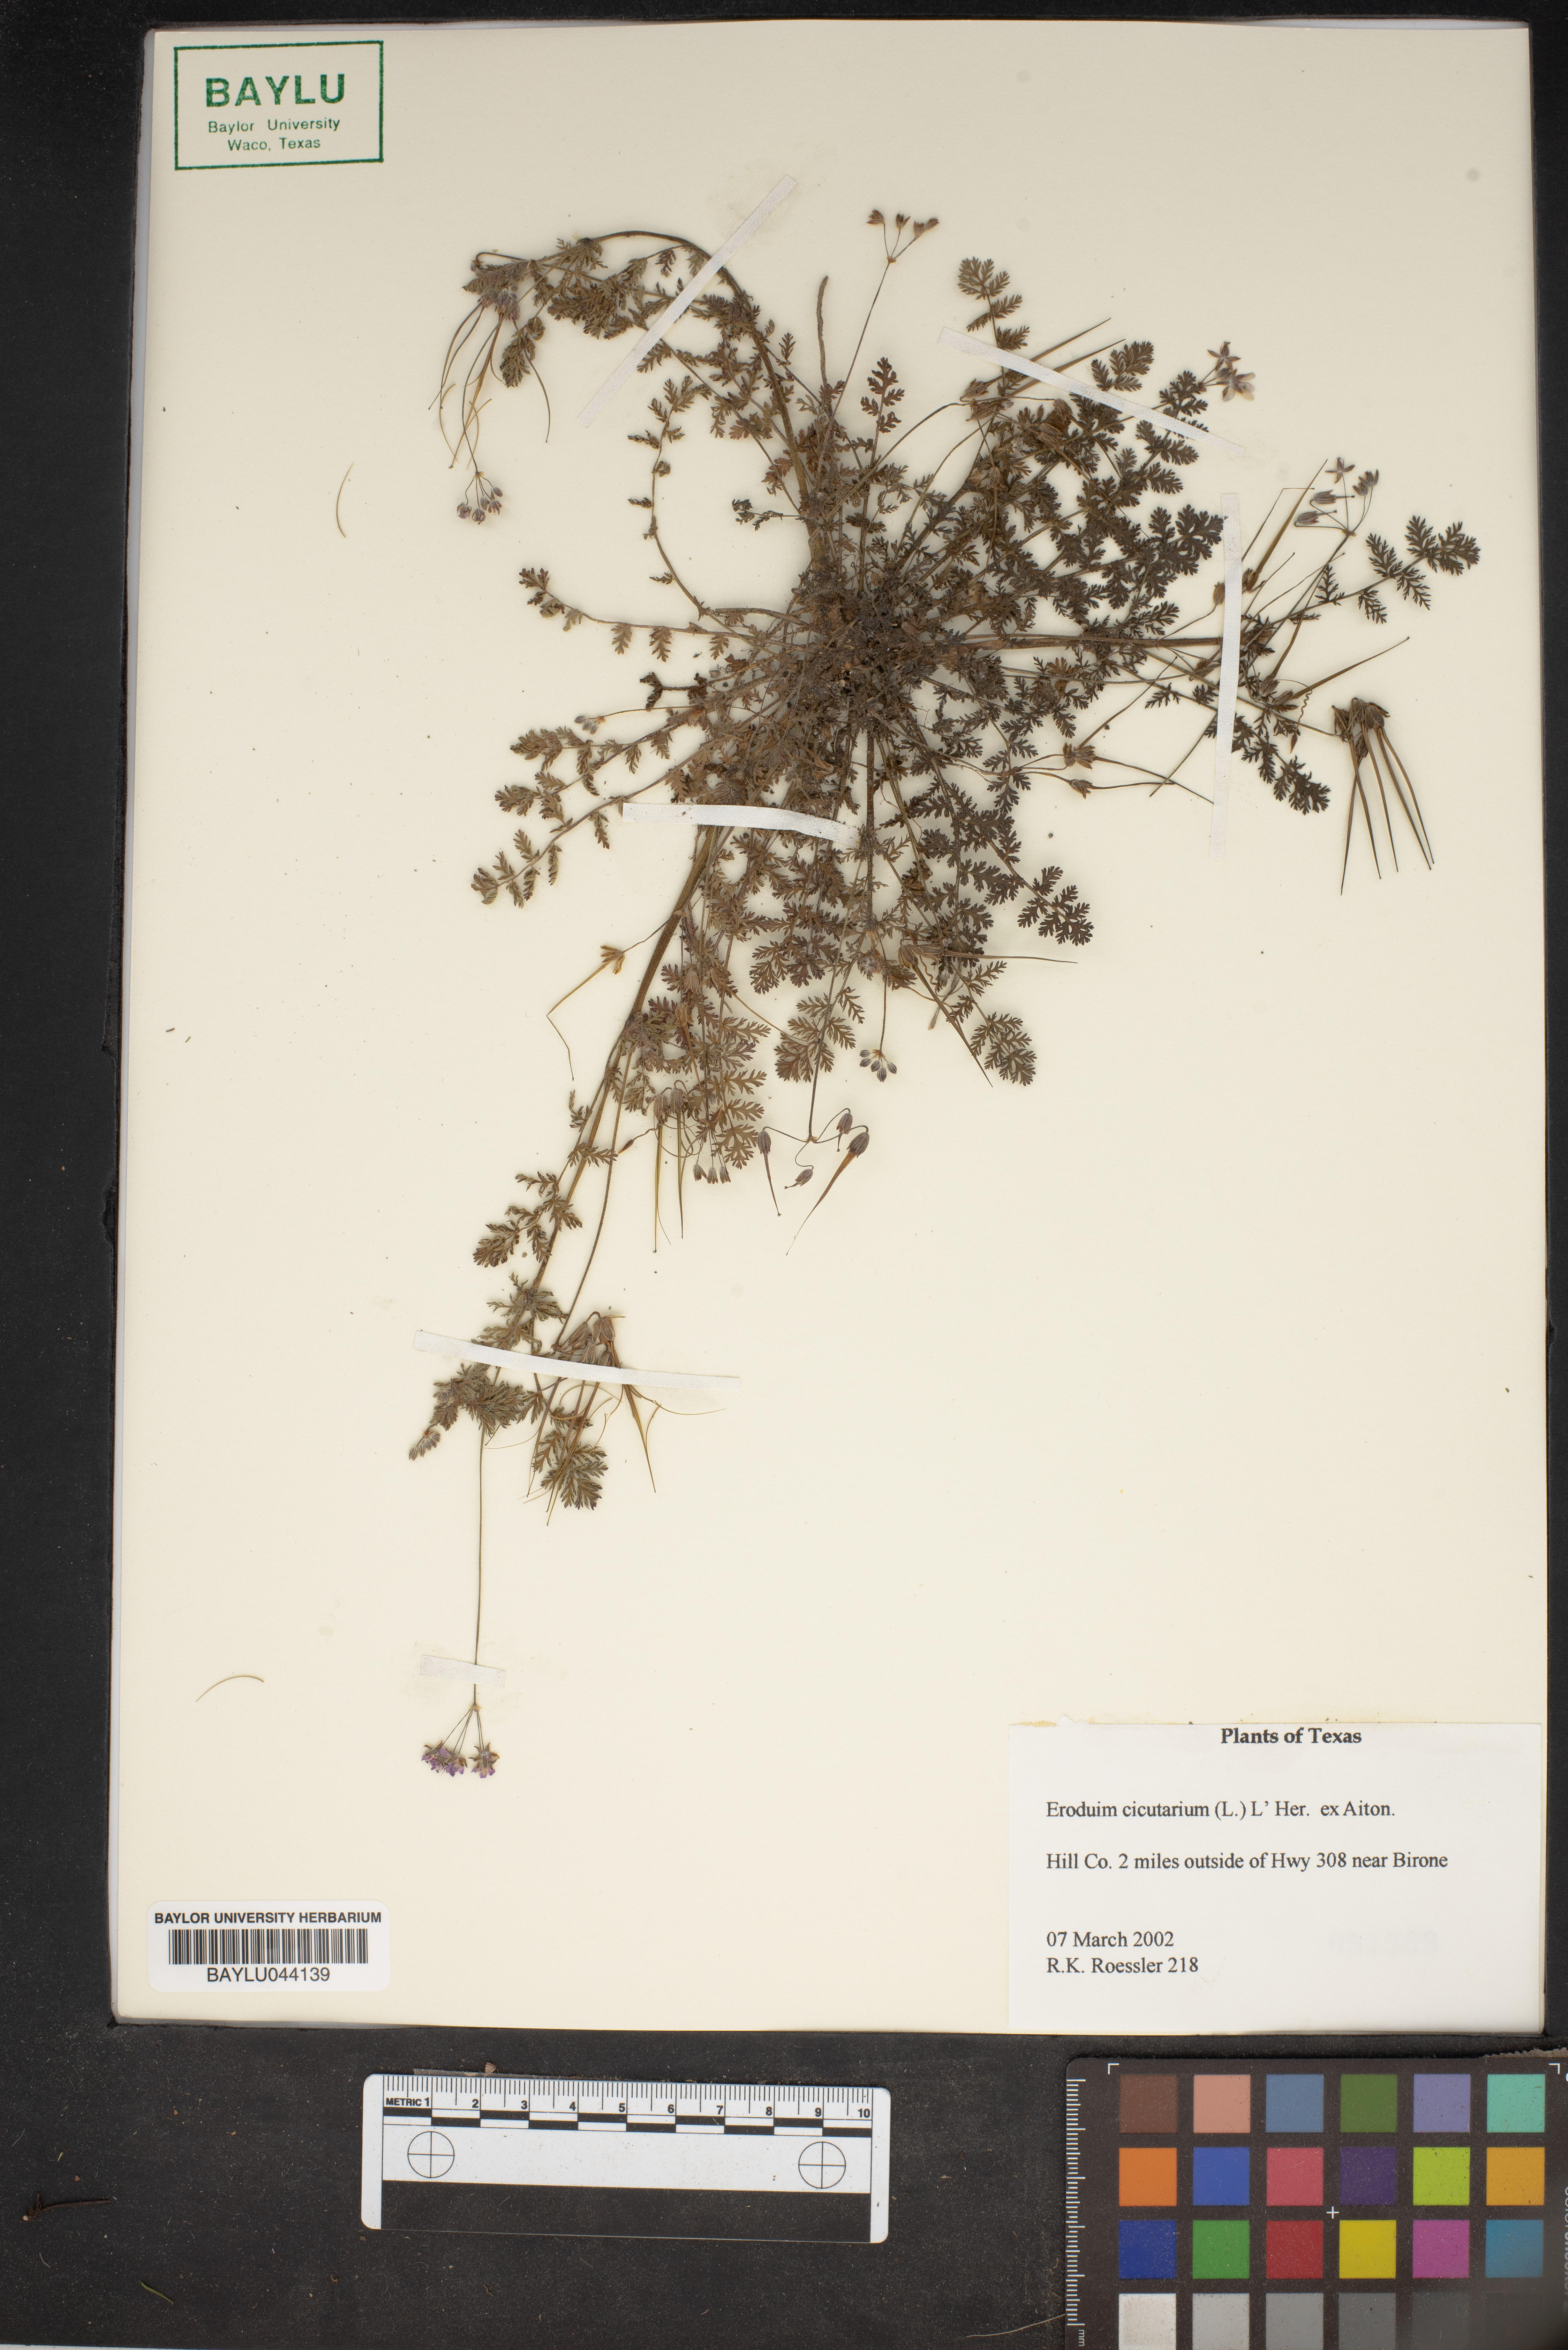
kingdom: Plantae
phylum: Tracheophyta
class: Magnoliopsida
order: Geraniales
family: Geraniaceae
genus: Erodium
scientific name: Erodium cicutarium
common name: Common stork's-bill
